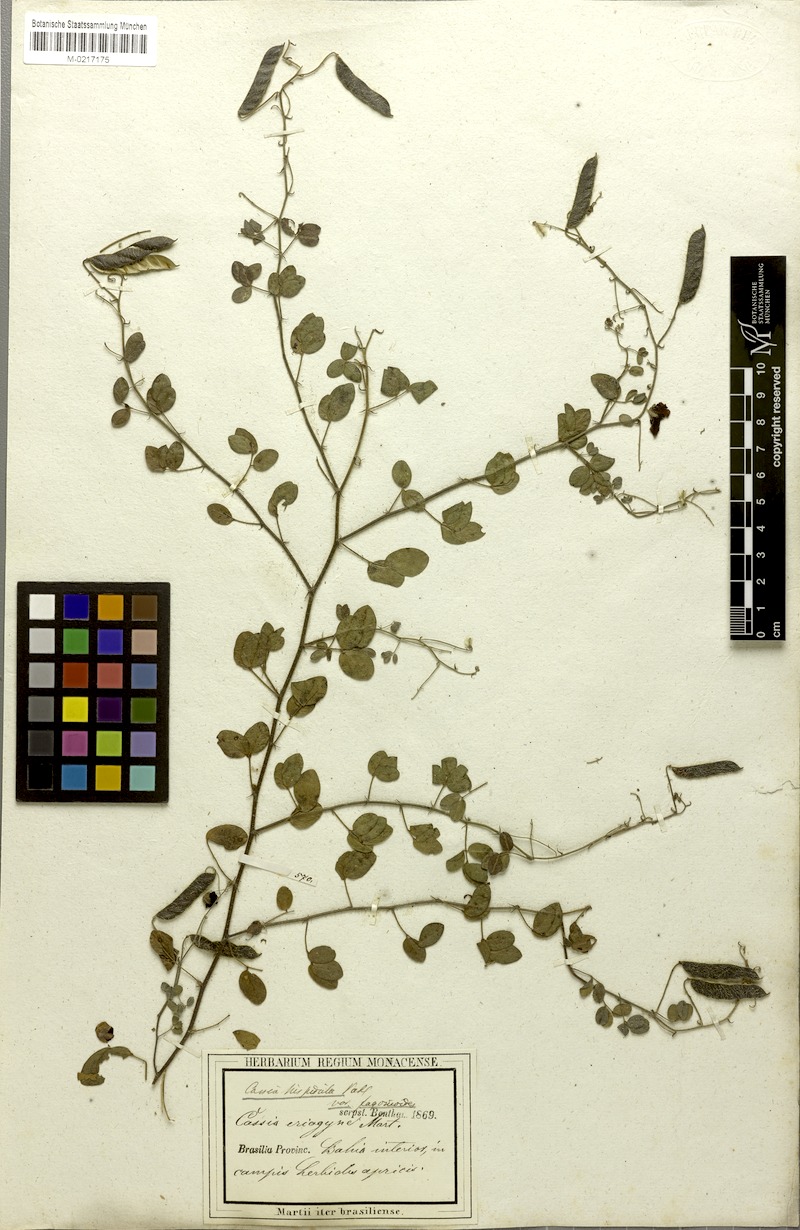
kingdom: Plantae
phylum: Tracheophyta
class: Magnoliopsida
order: Fabales
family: Fabaceae
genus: Chamaecrista
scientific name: Chamaecrista fagonioides
